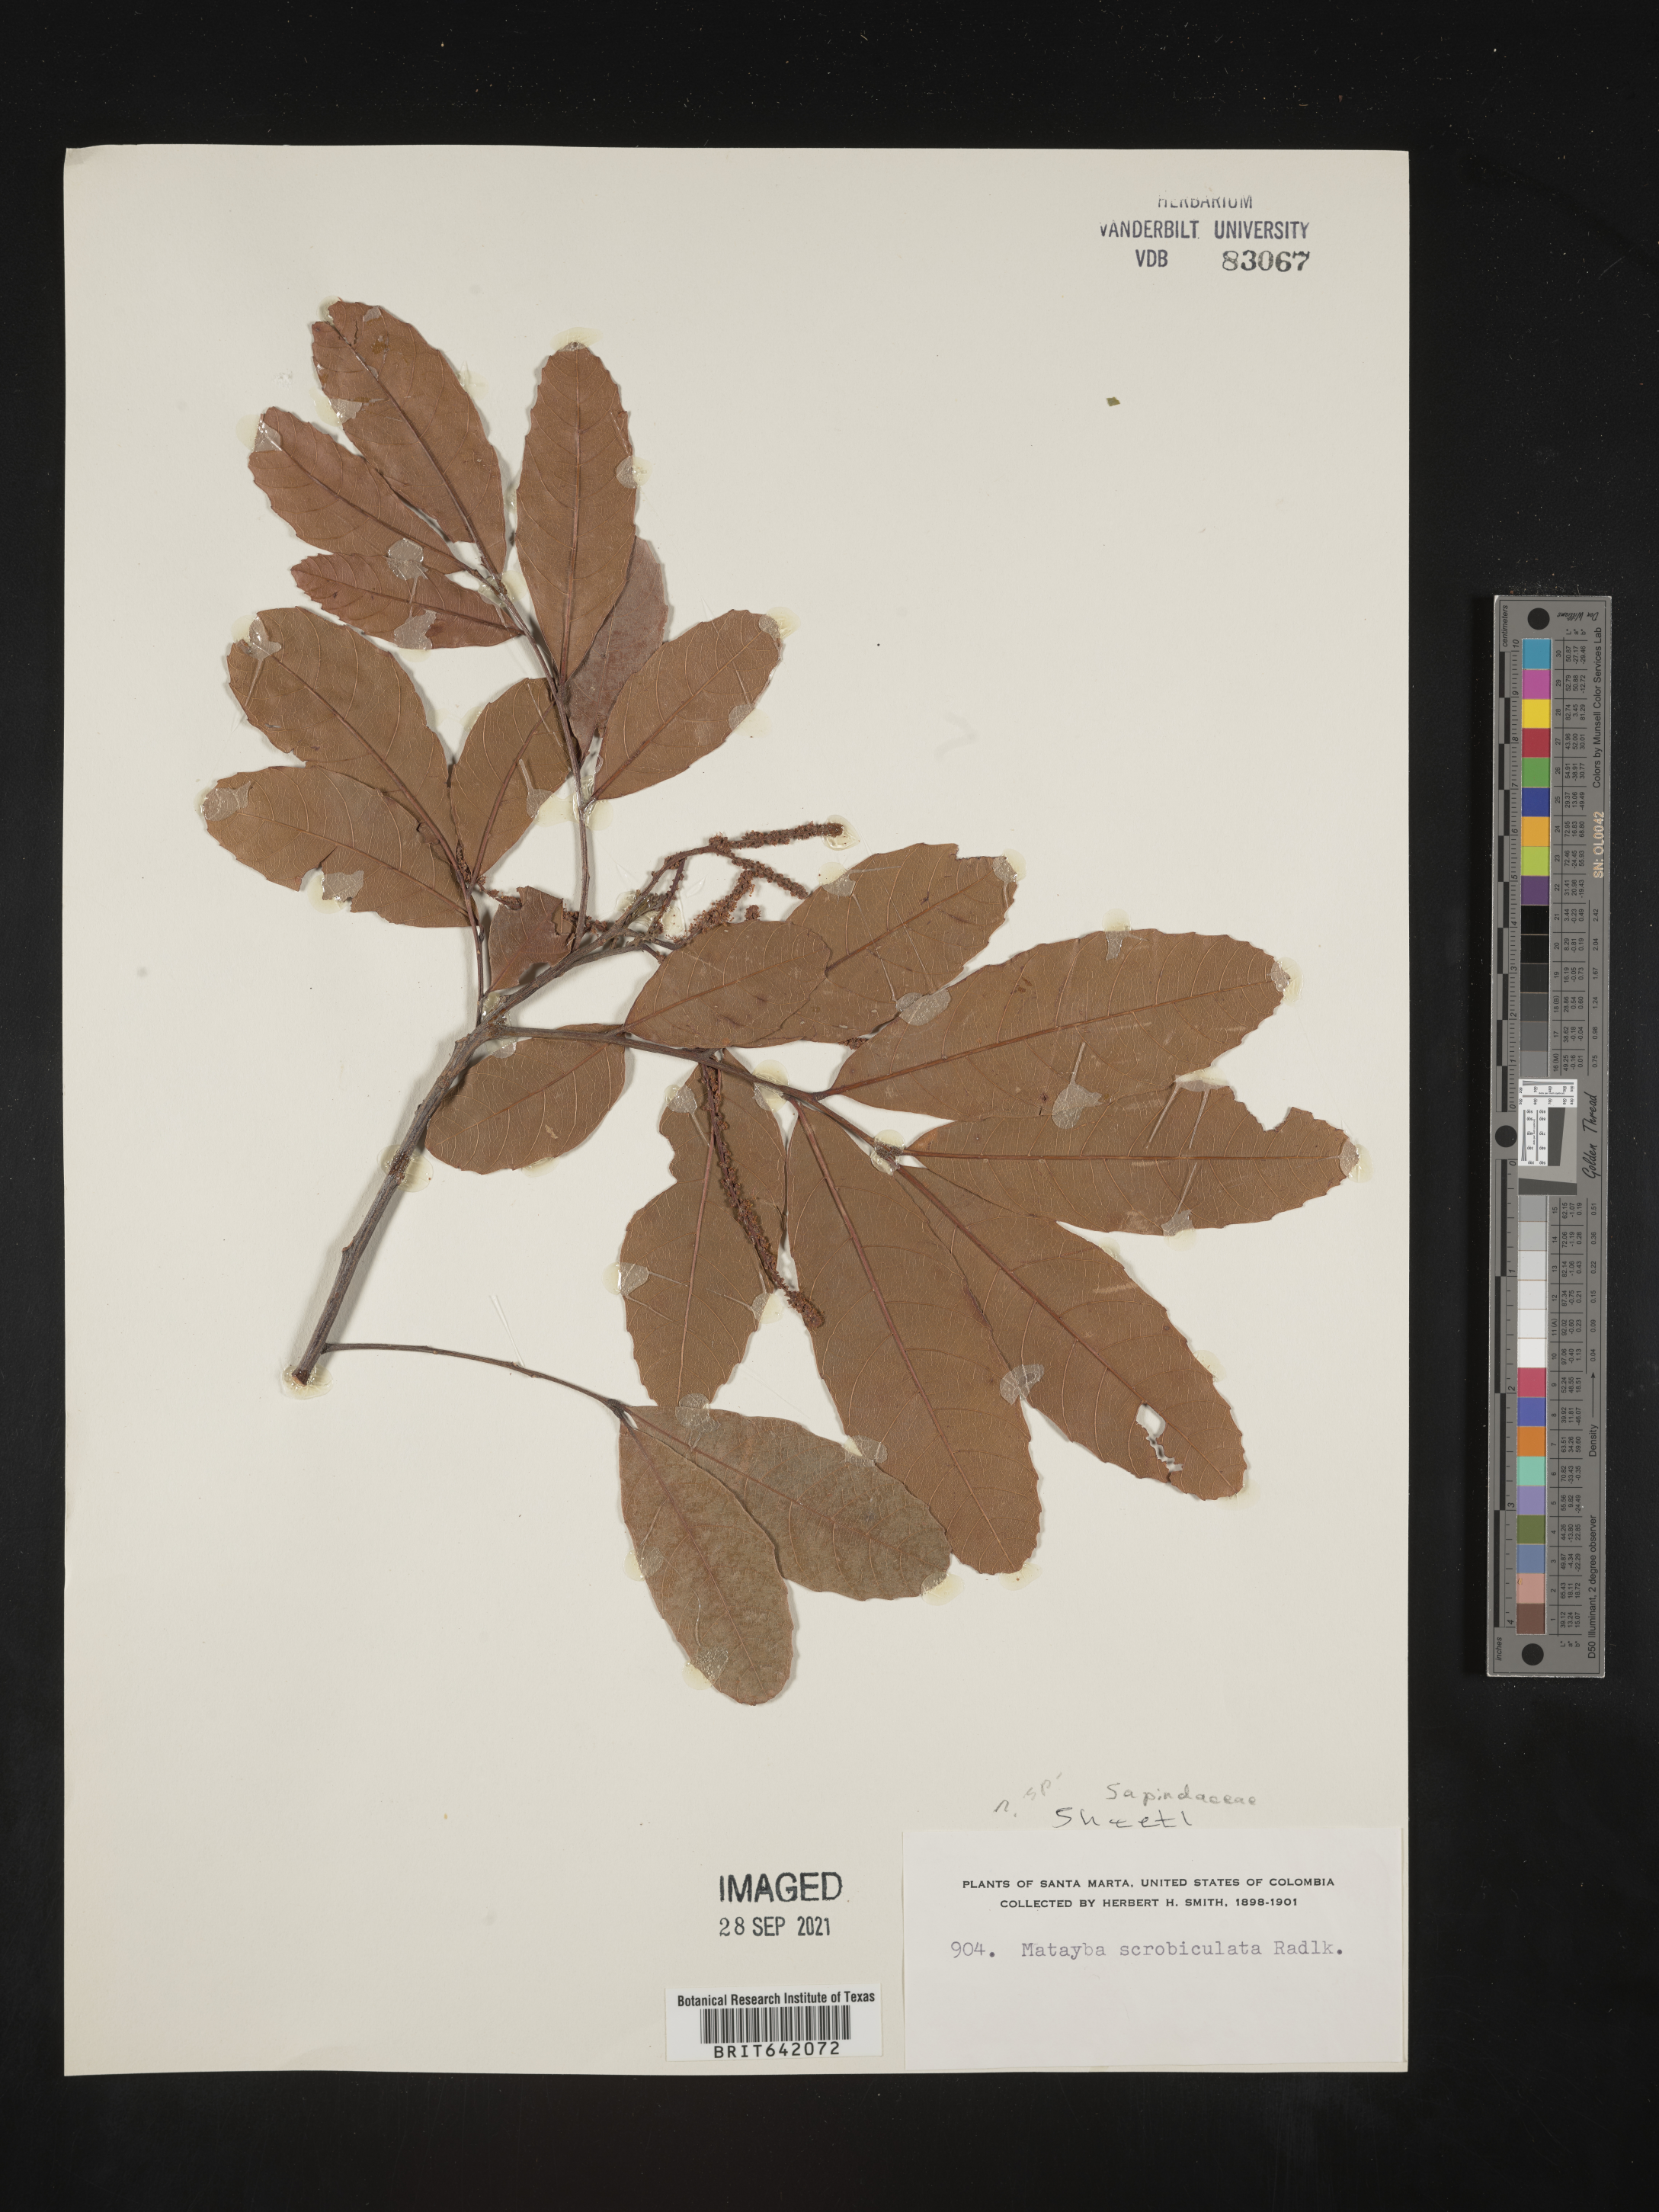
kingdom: Plantae
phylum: Tracheophyta
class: Magnoliopsida
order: Sapindales
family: Sapindaceae
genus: Matayba
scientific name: Matayba
